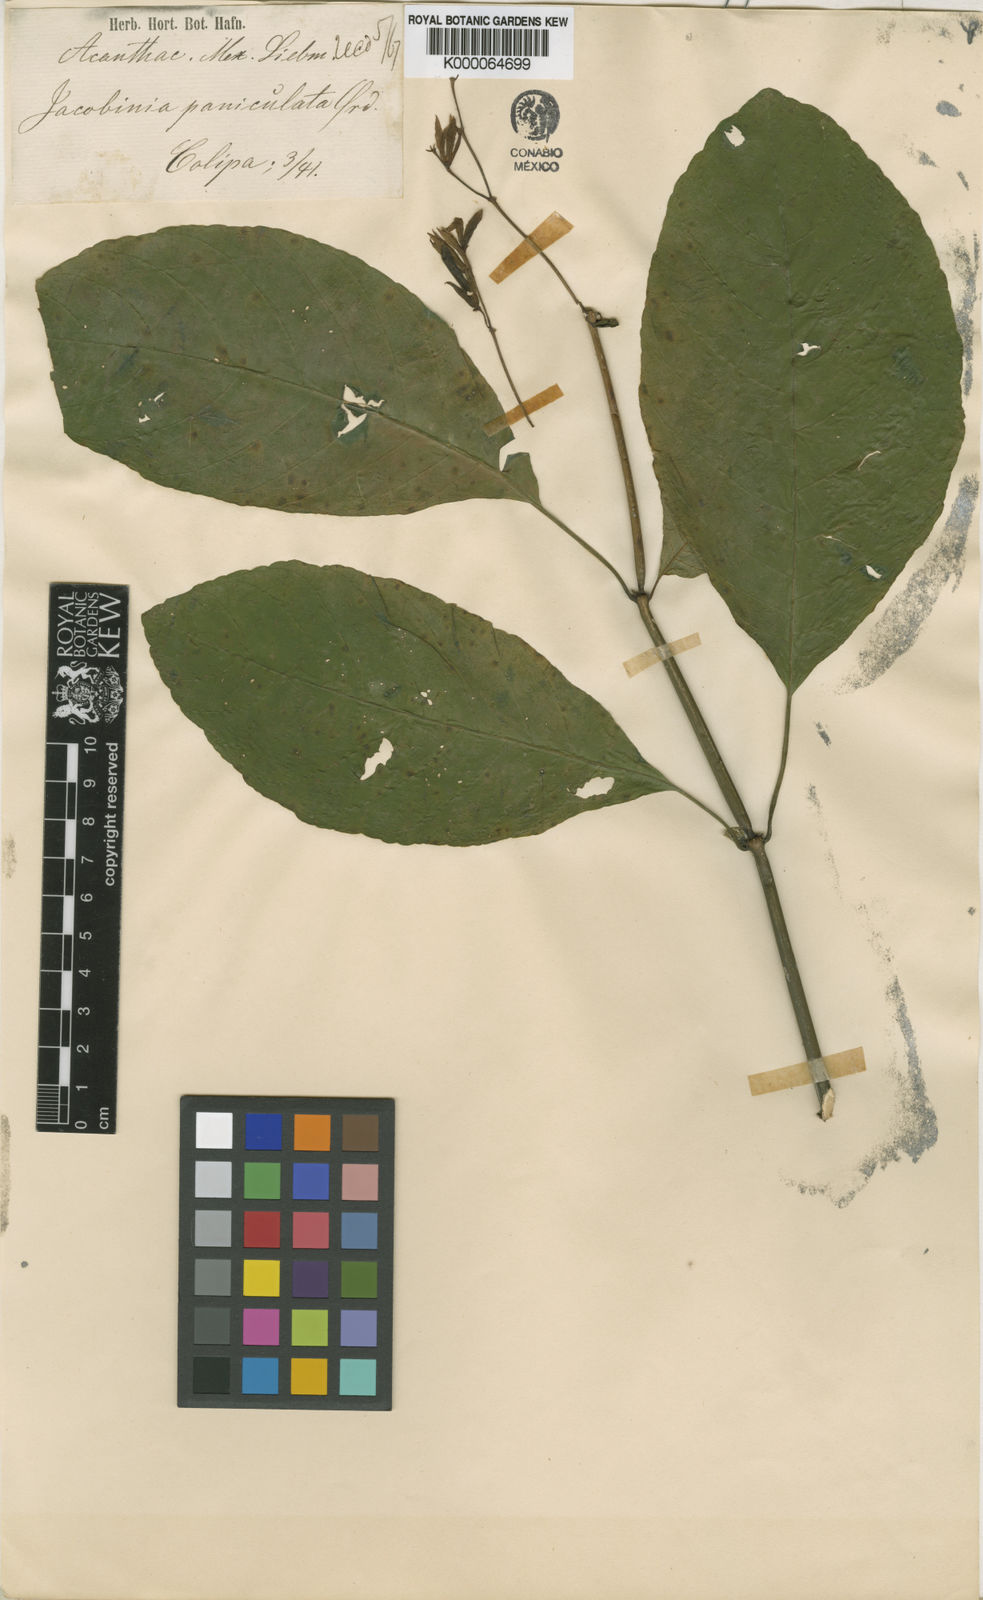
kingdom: Plantae
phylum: Tracheophyta
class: Magnoliopsida
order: Lamiales
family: Acanthaceae
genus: Justicia
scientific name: Justicia veracruzana
